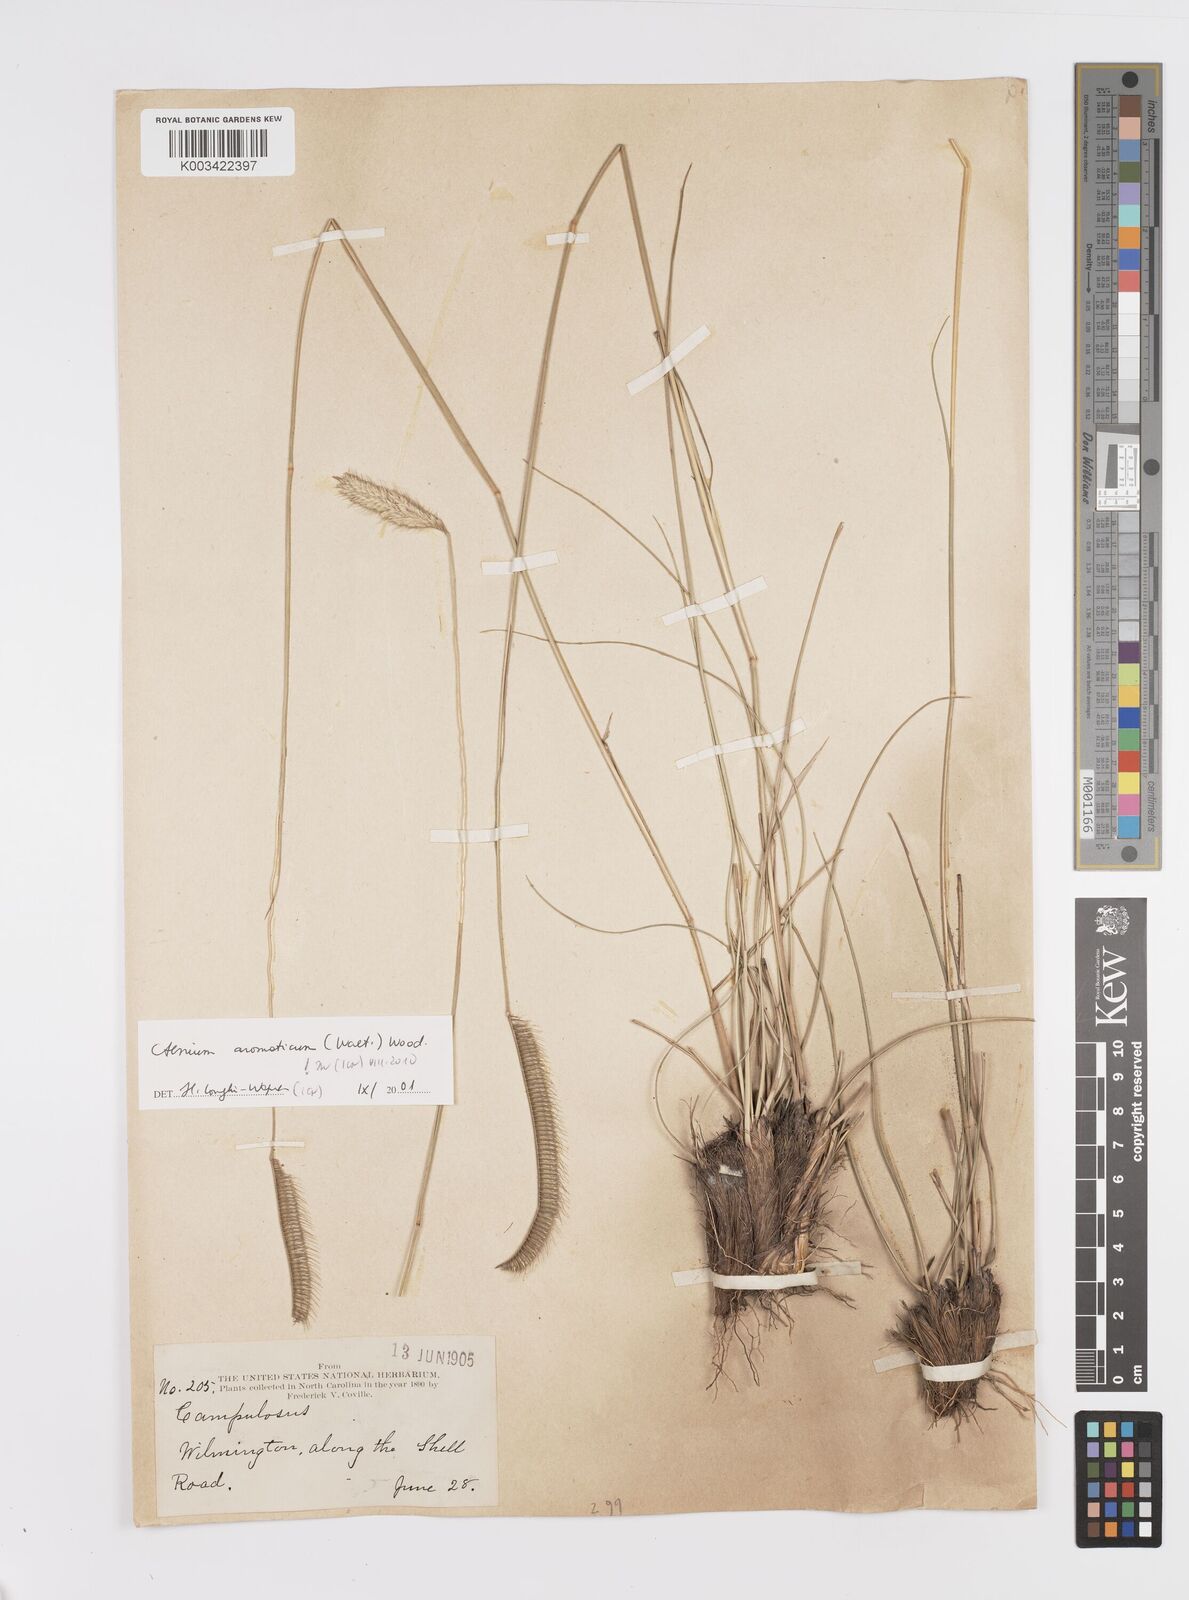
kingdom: Plantae
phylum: Tracheophyta
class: Liliopsida
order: Poales
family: Poaceae
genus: Ctenium
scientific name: Ctenium aromaticum
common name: Toothache grass
